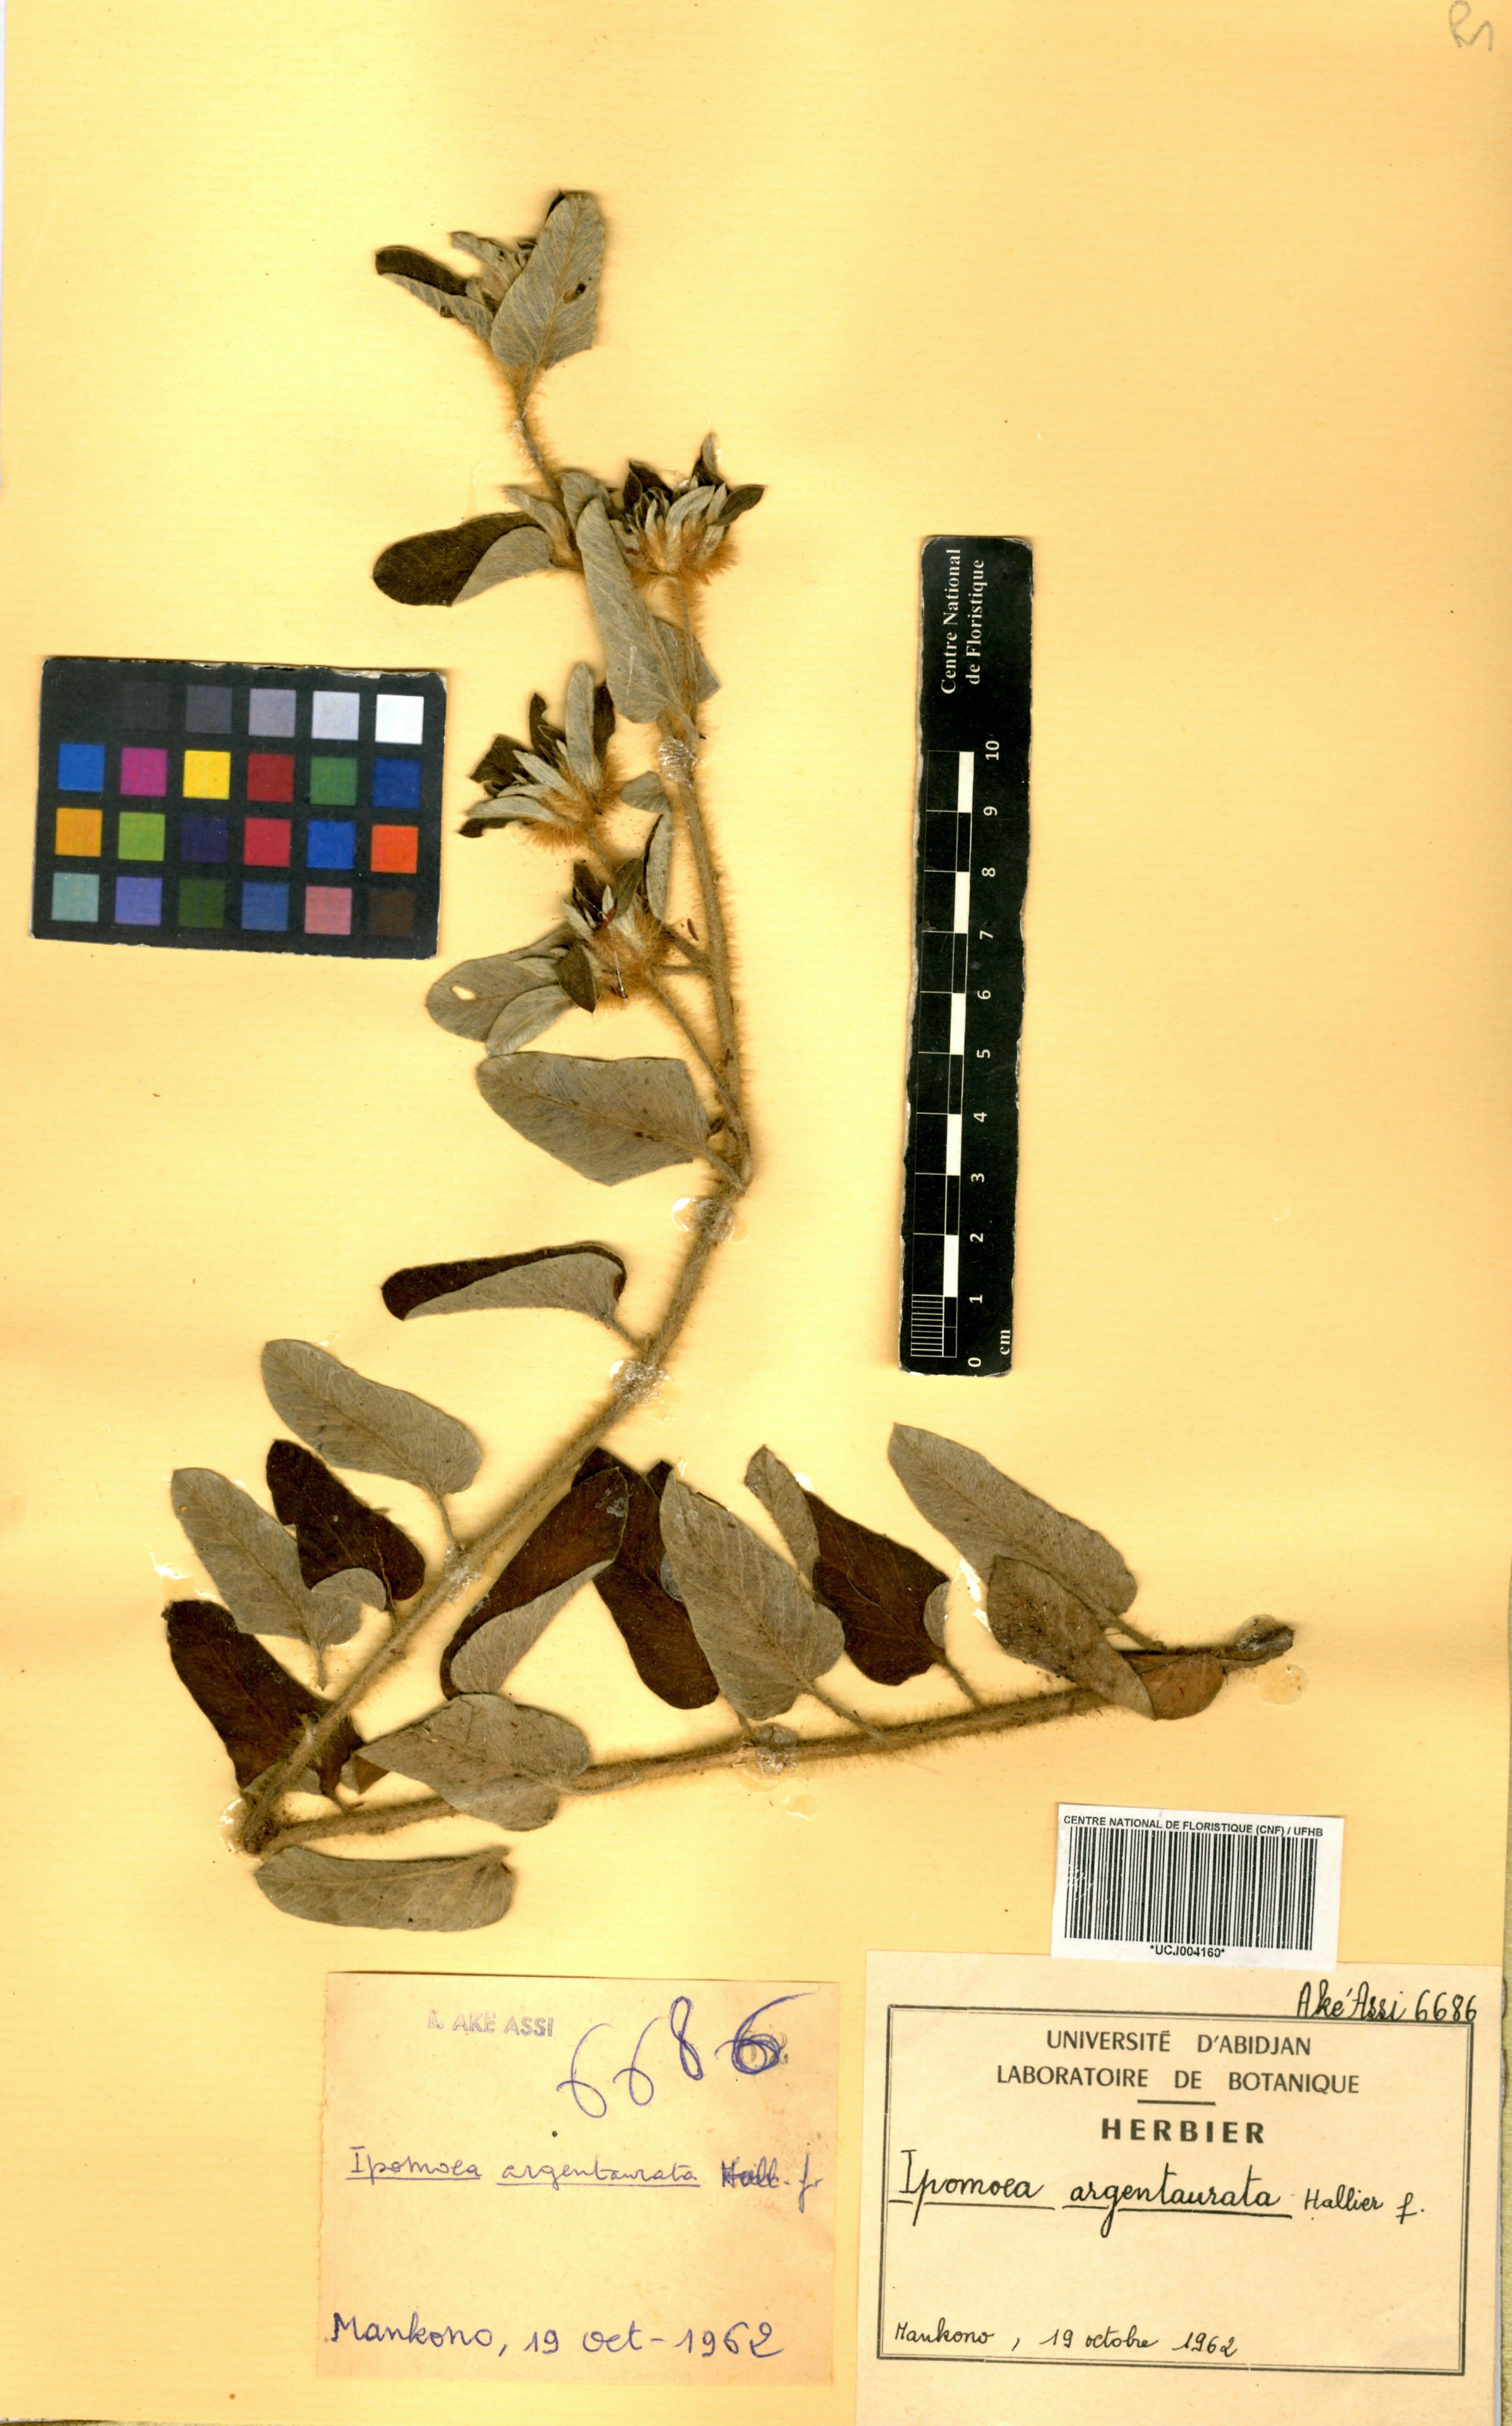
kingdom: Plantae
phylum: Tracheophyta
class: Magnoliopsida
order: Solanales
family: Convolvulaceae
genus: Ipomoea
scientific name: Ipomoea argentaurata
